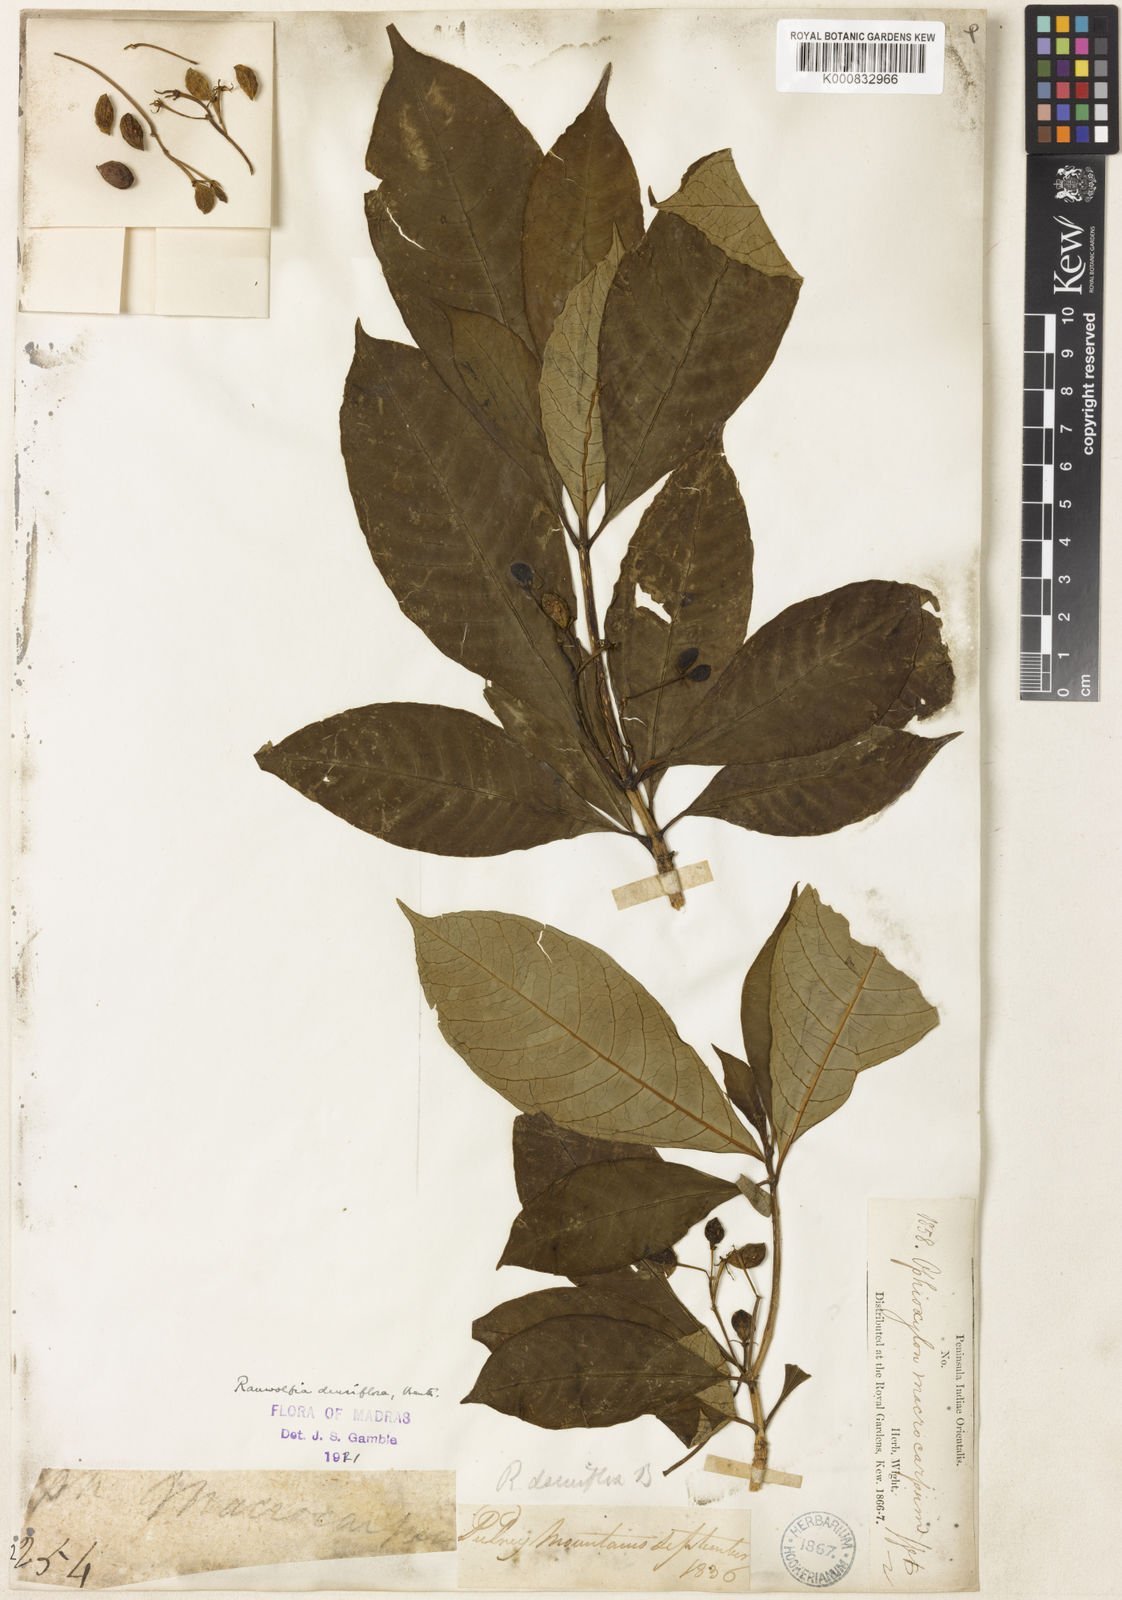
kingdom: Plantae
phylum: Tracheophyta
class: Magnoliopsida
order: Gentianales
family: Apocynaceae
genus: Rauvolfia
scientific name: Rauvolfia verticillata
